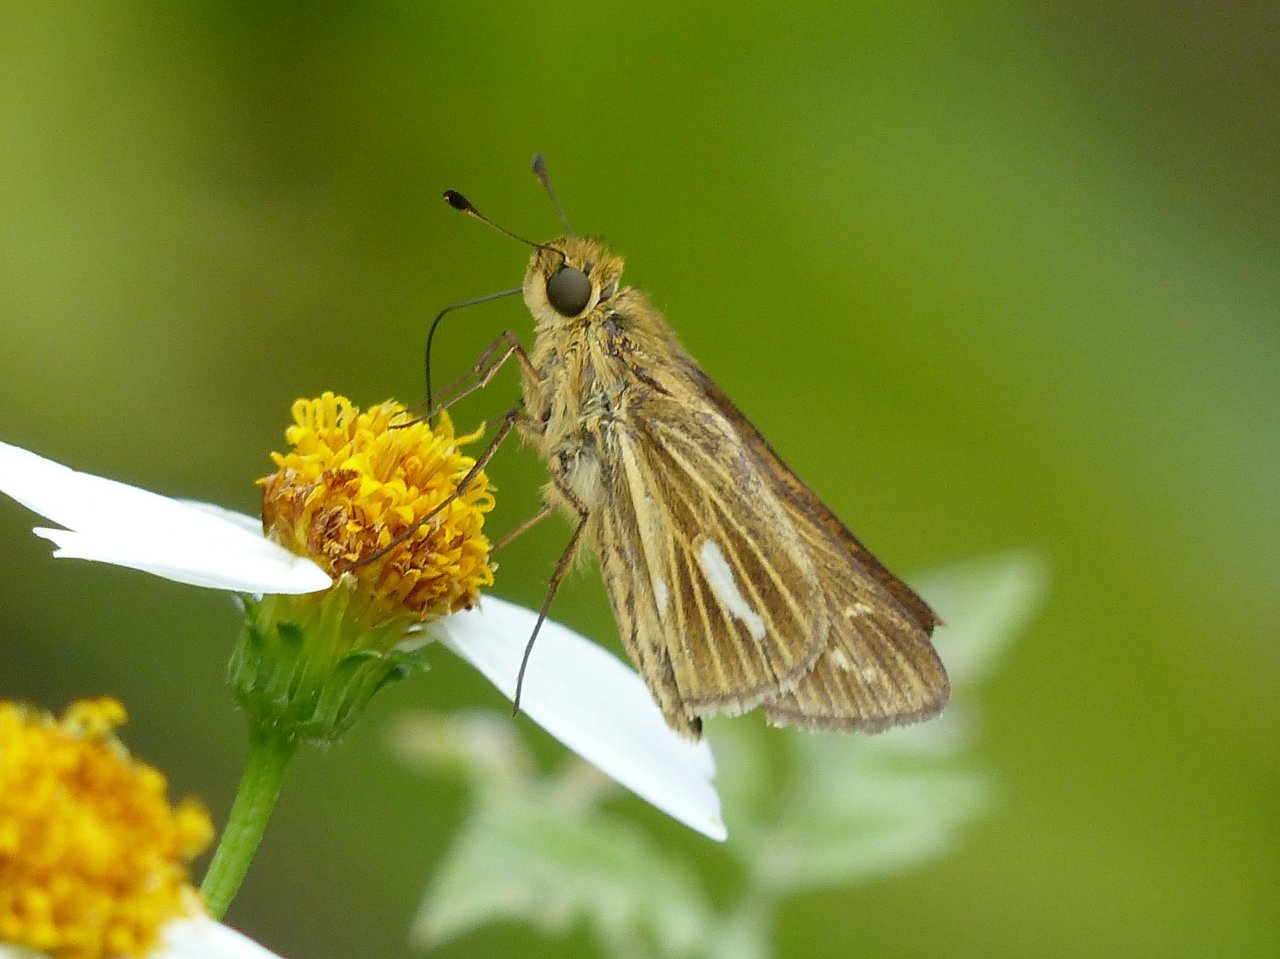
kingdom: Animalia
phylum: Arthropoda
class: Insecta
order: Lepidoptera
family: Hesperiidae
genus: Panoquina
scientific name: Panoquina panoquin
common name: Salt Marsh Skipper
